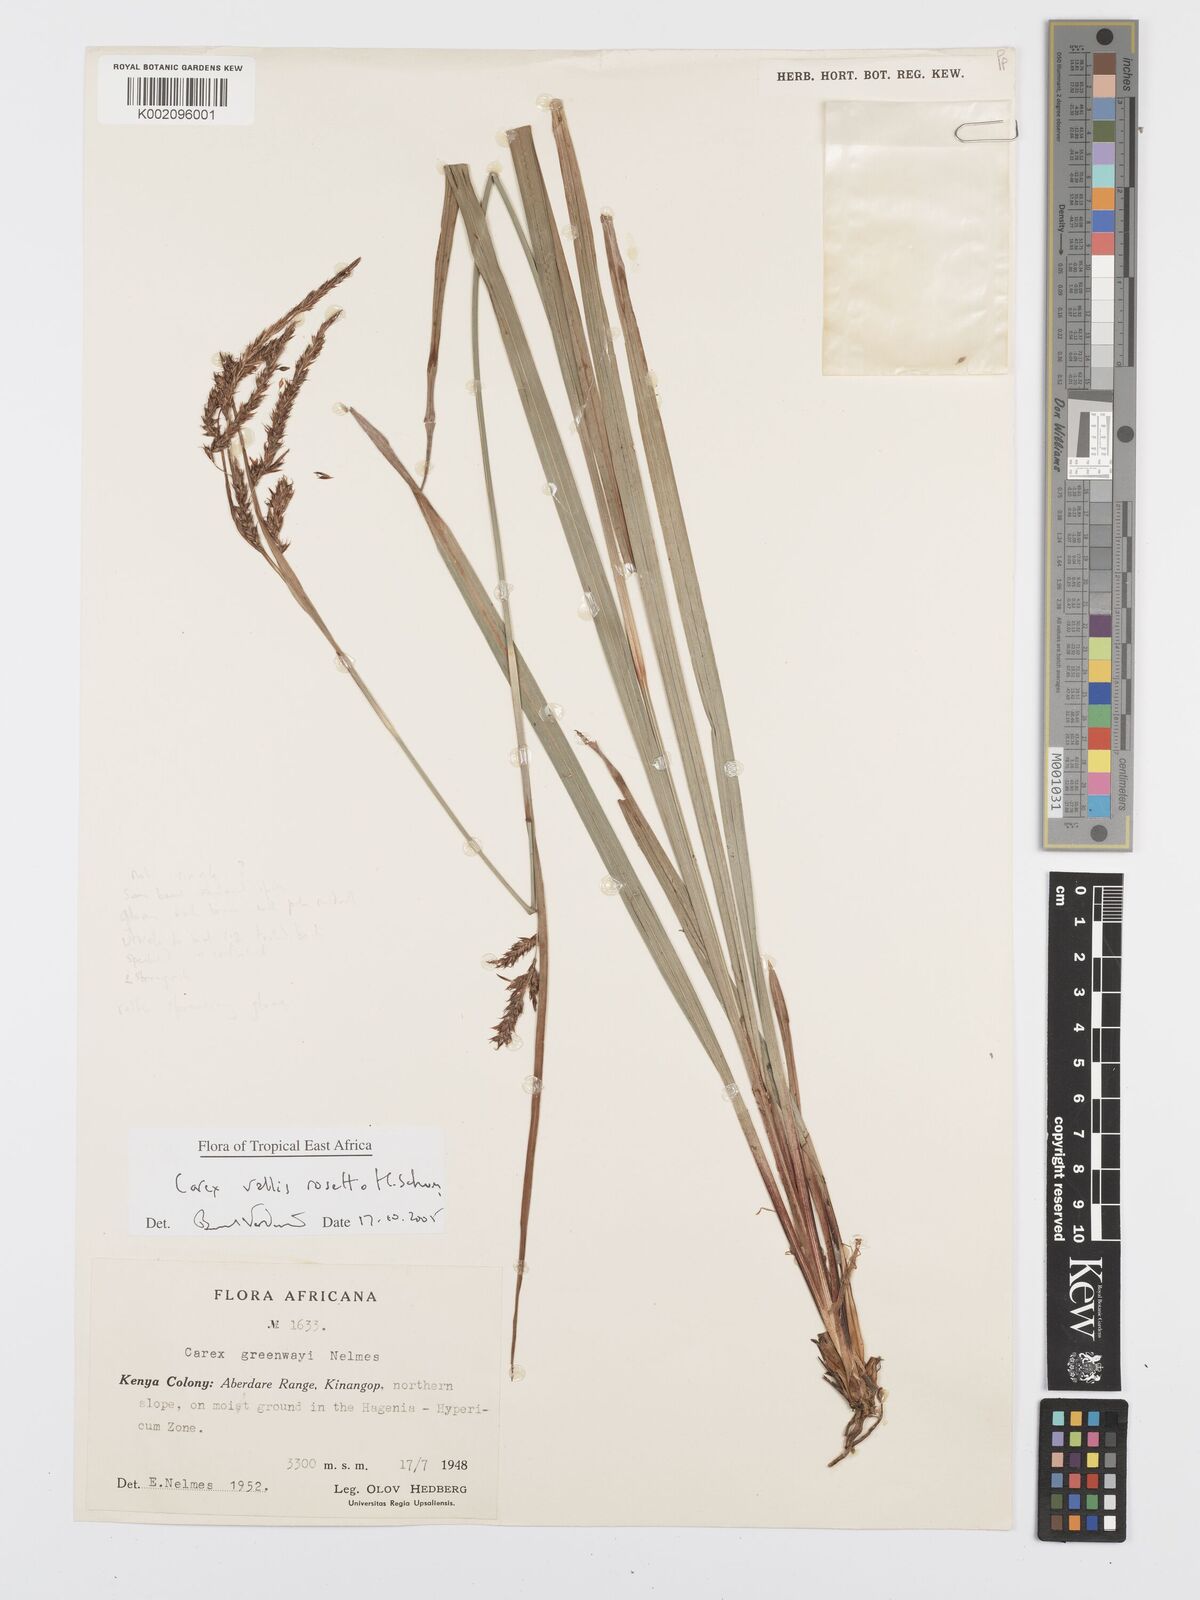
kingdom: Plantae
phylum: Tracheophyta
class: Liliopsida
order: Poales
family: Cyperaceae
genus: Carex
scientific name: Carex vallis-rosetto
